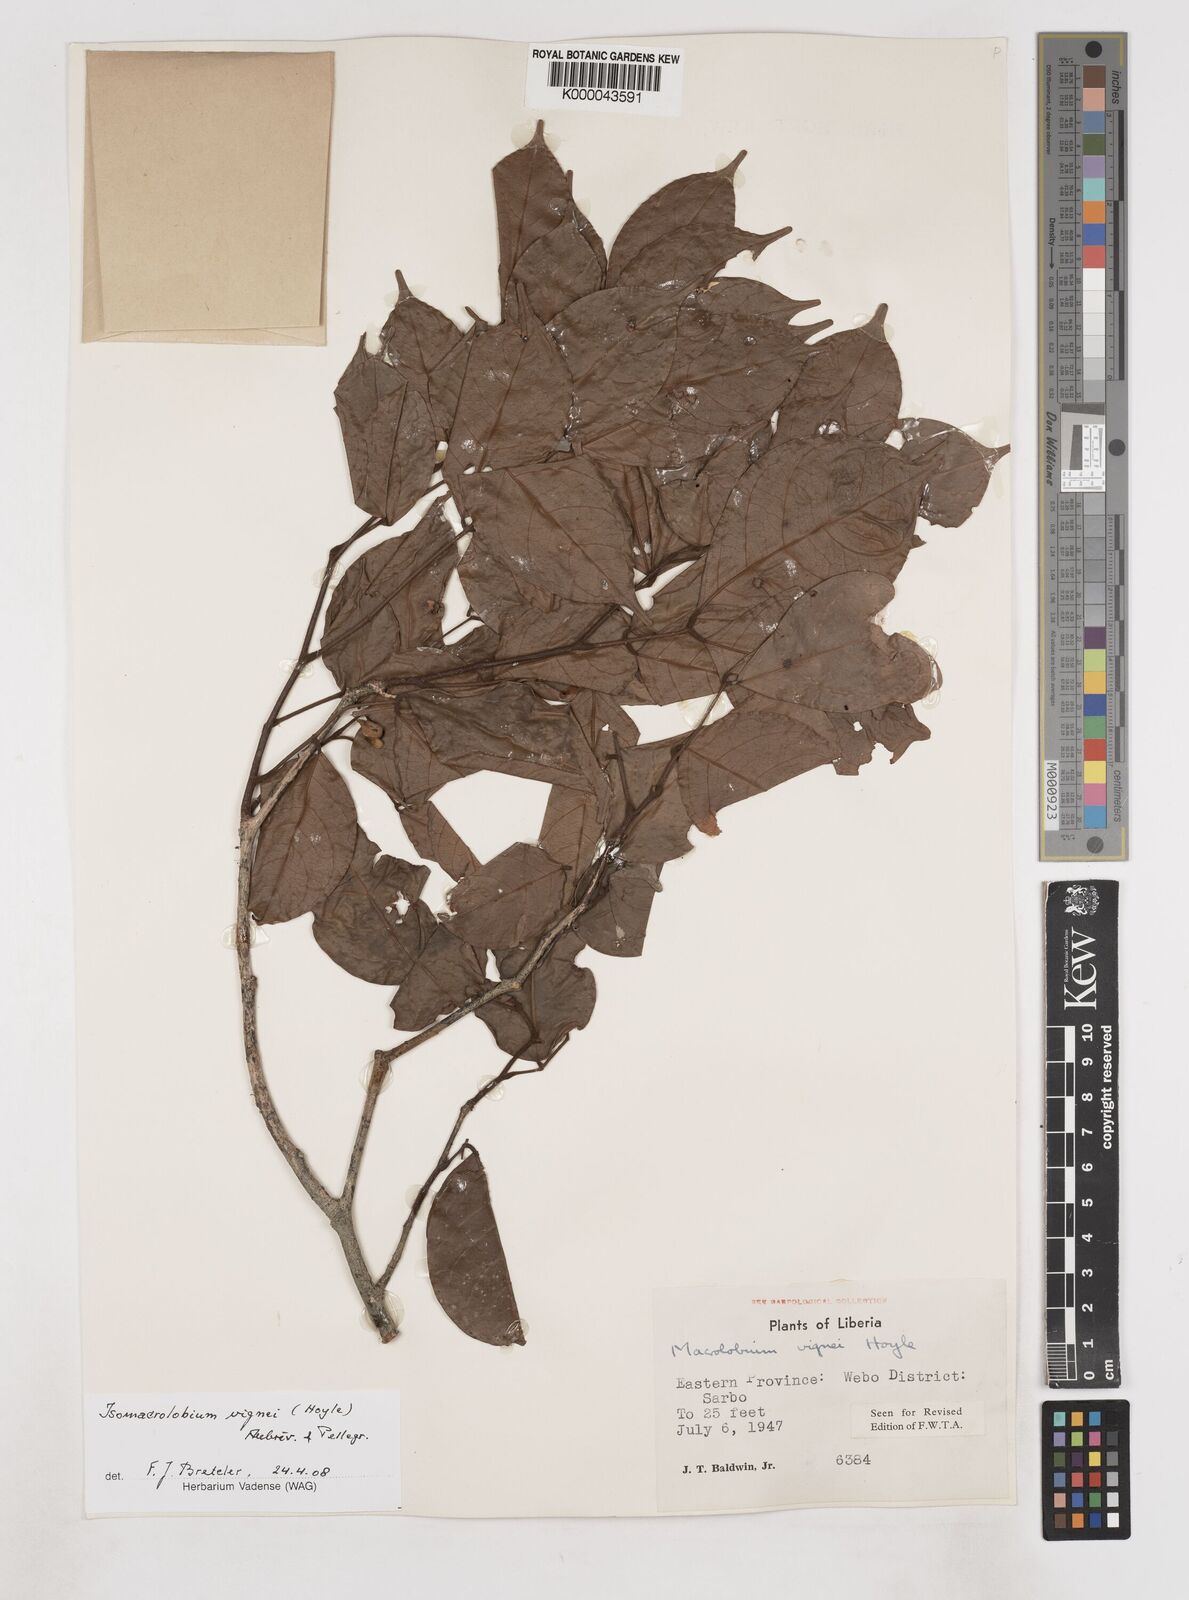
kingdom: Plantae
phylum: Tracheophyta
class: Magnoliopsida
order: Fabales
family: Fabaceae
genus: Englerodendron
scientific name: Englerodendron vignei
